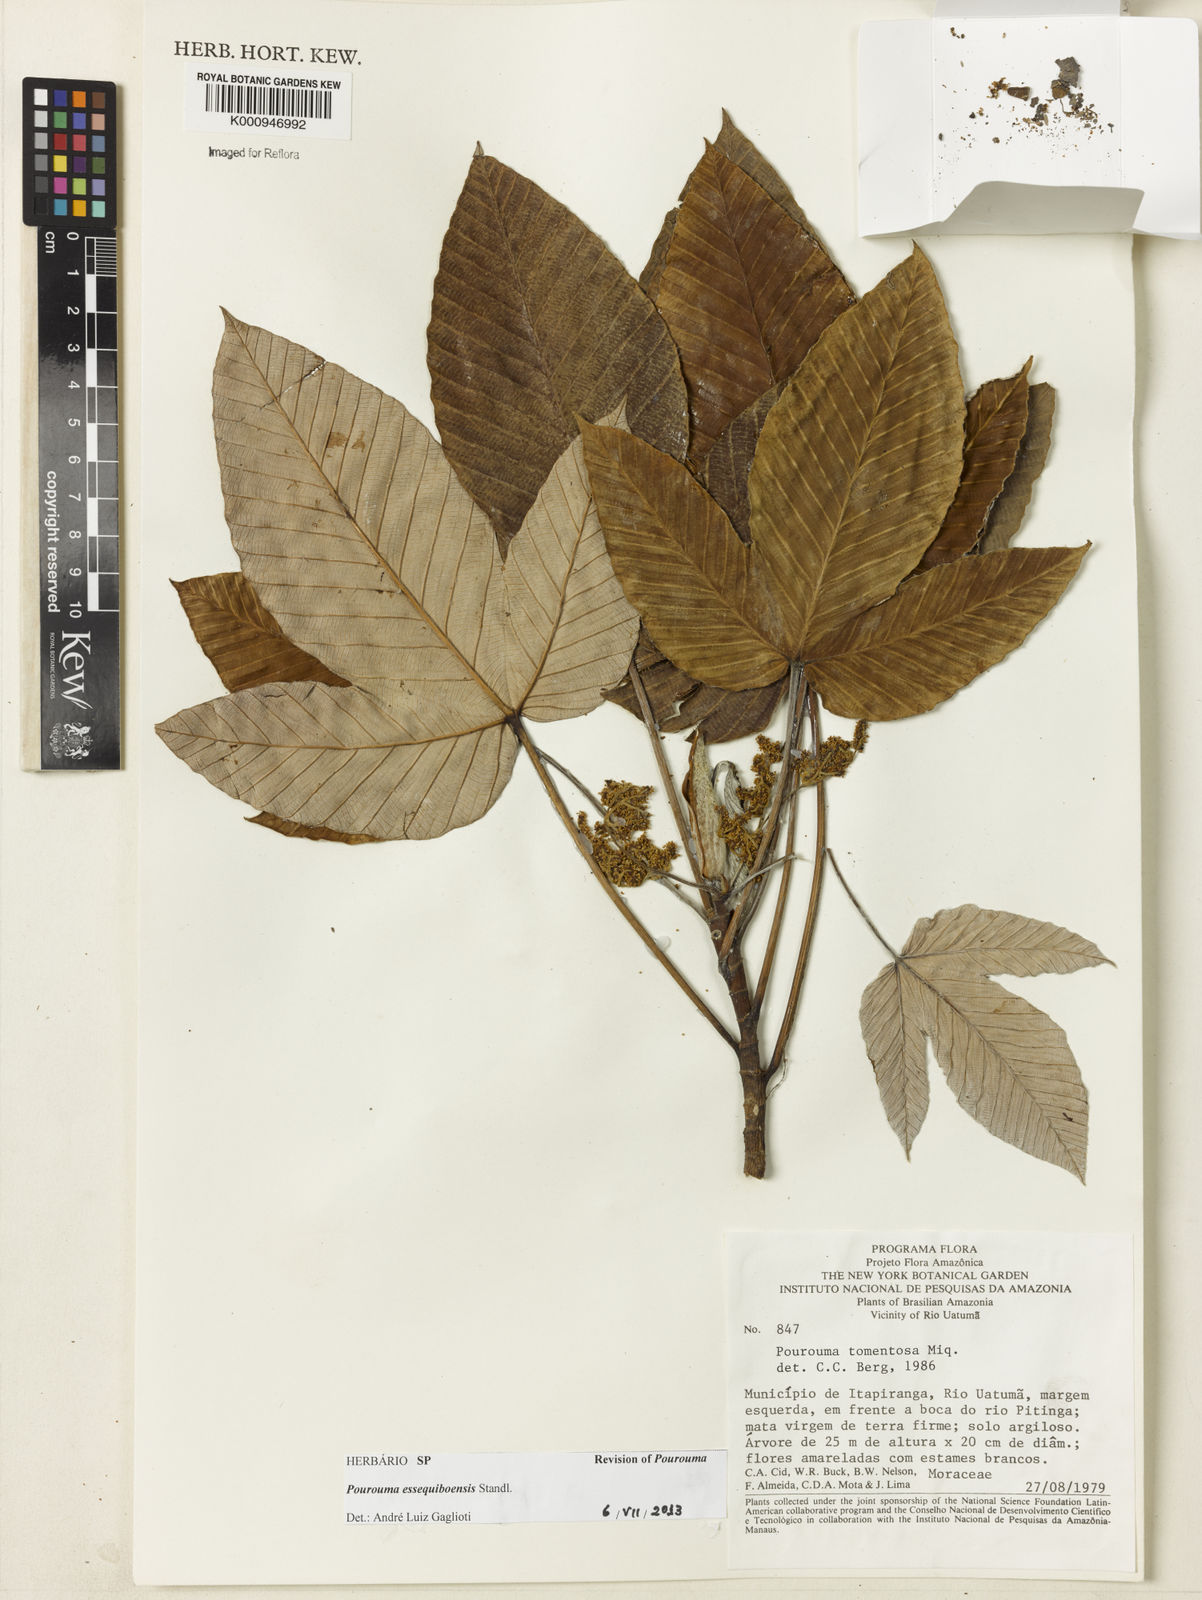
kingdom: Plantae
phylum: Tracheophyta
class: Magnoliopsida
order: Rosales
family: Urticaceae
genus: Pourouma
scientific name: Pourouma tomentosa
